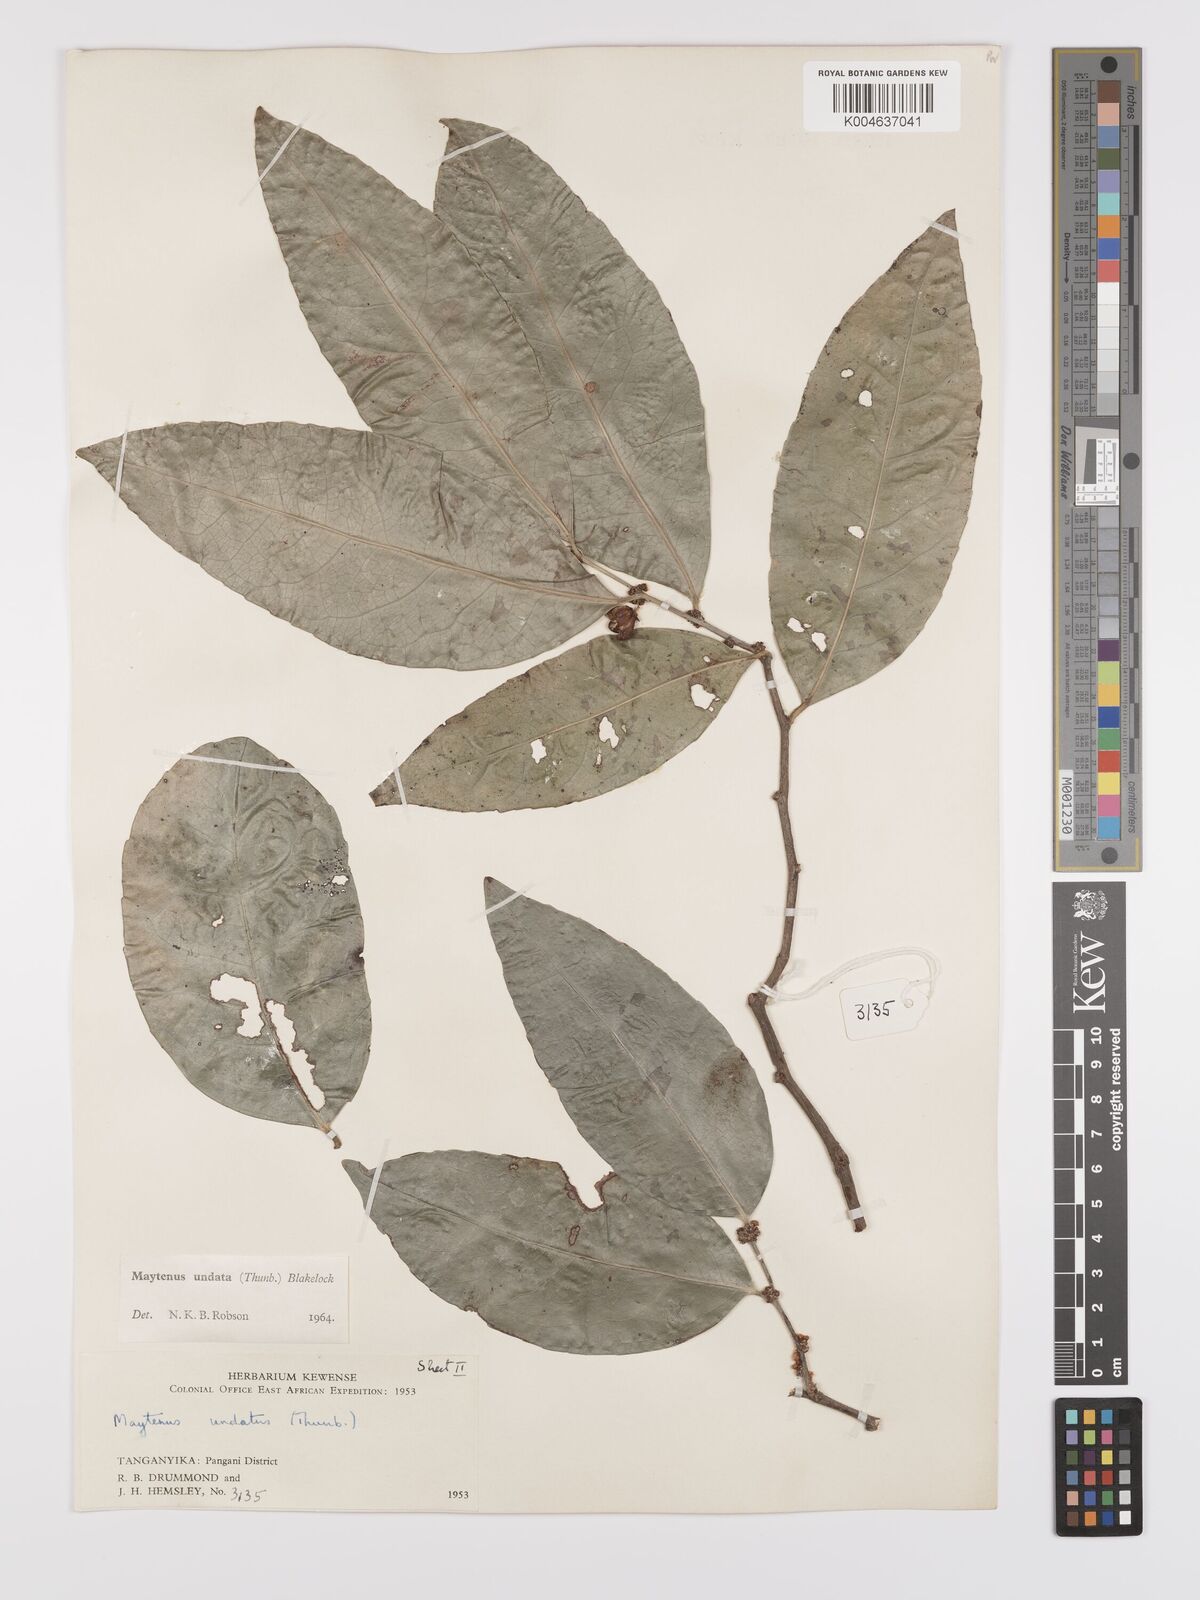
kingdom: Plantae
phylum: Tracheophyta
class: Magnoliopsida
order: Celastrales
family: Celastraceae
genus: Gymnosporia
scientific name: Gymnosporia undata
